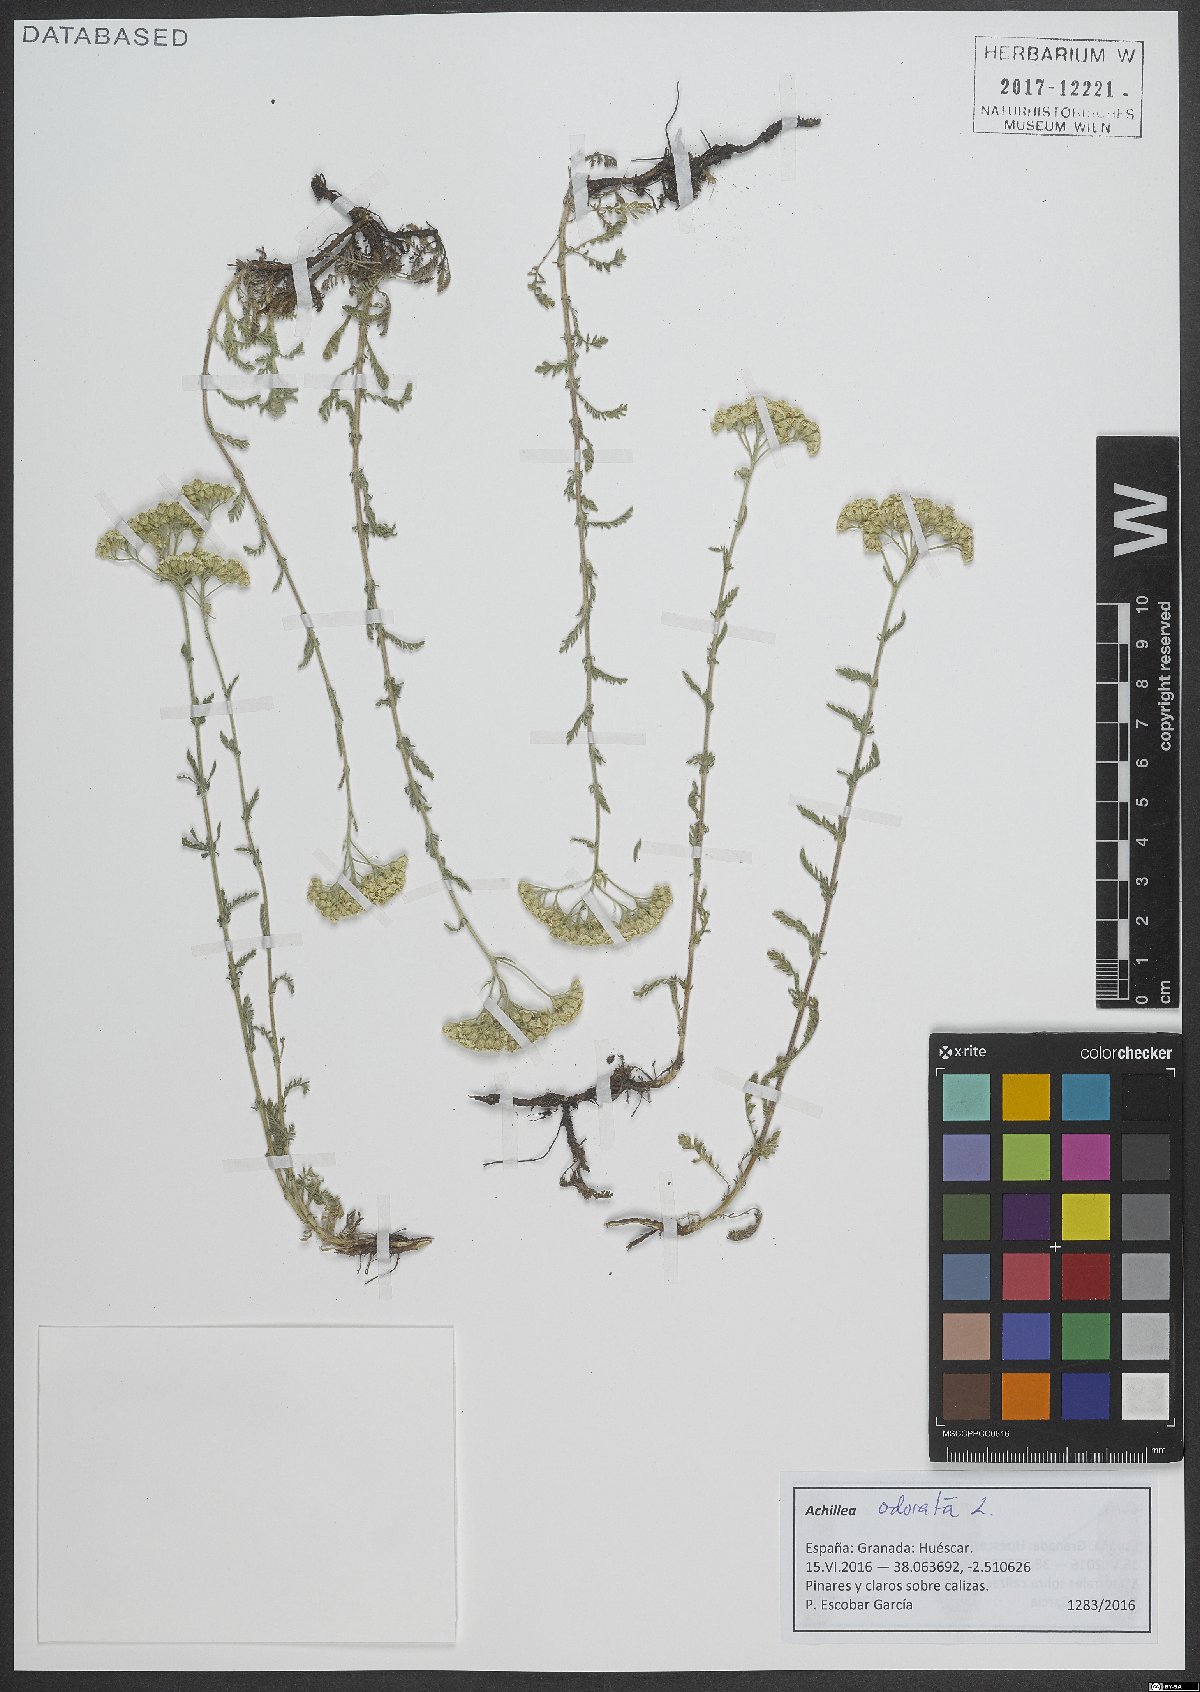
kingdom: Plantae
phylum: Tracheophyta
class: Magnoliopsida
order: Asterales
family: Asteraceae
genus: Achillea
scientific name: Achillea odorata
